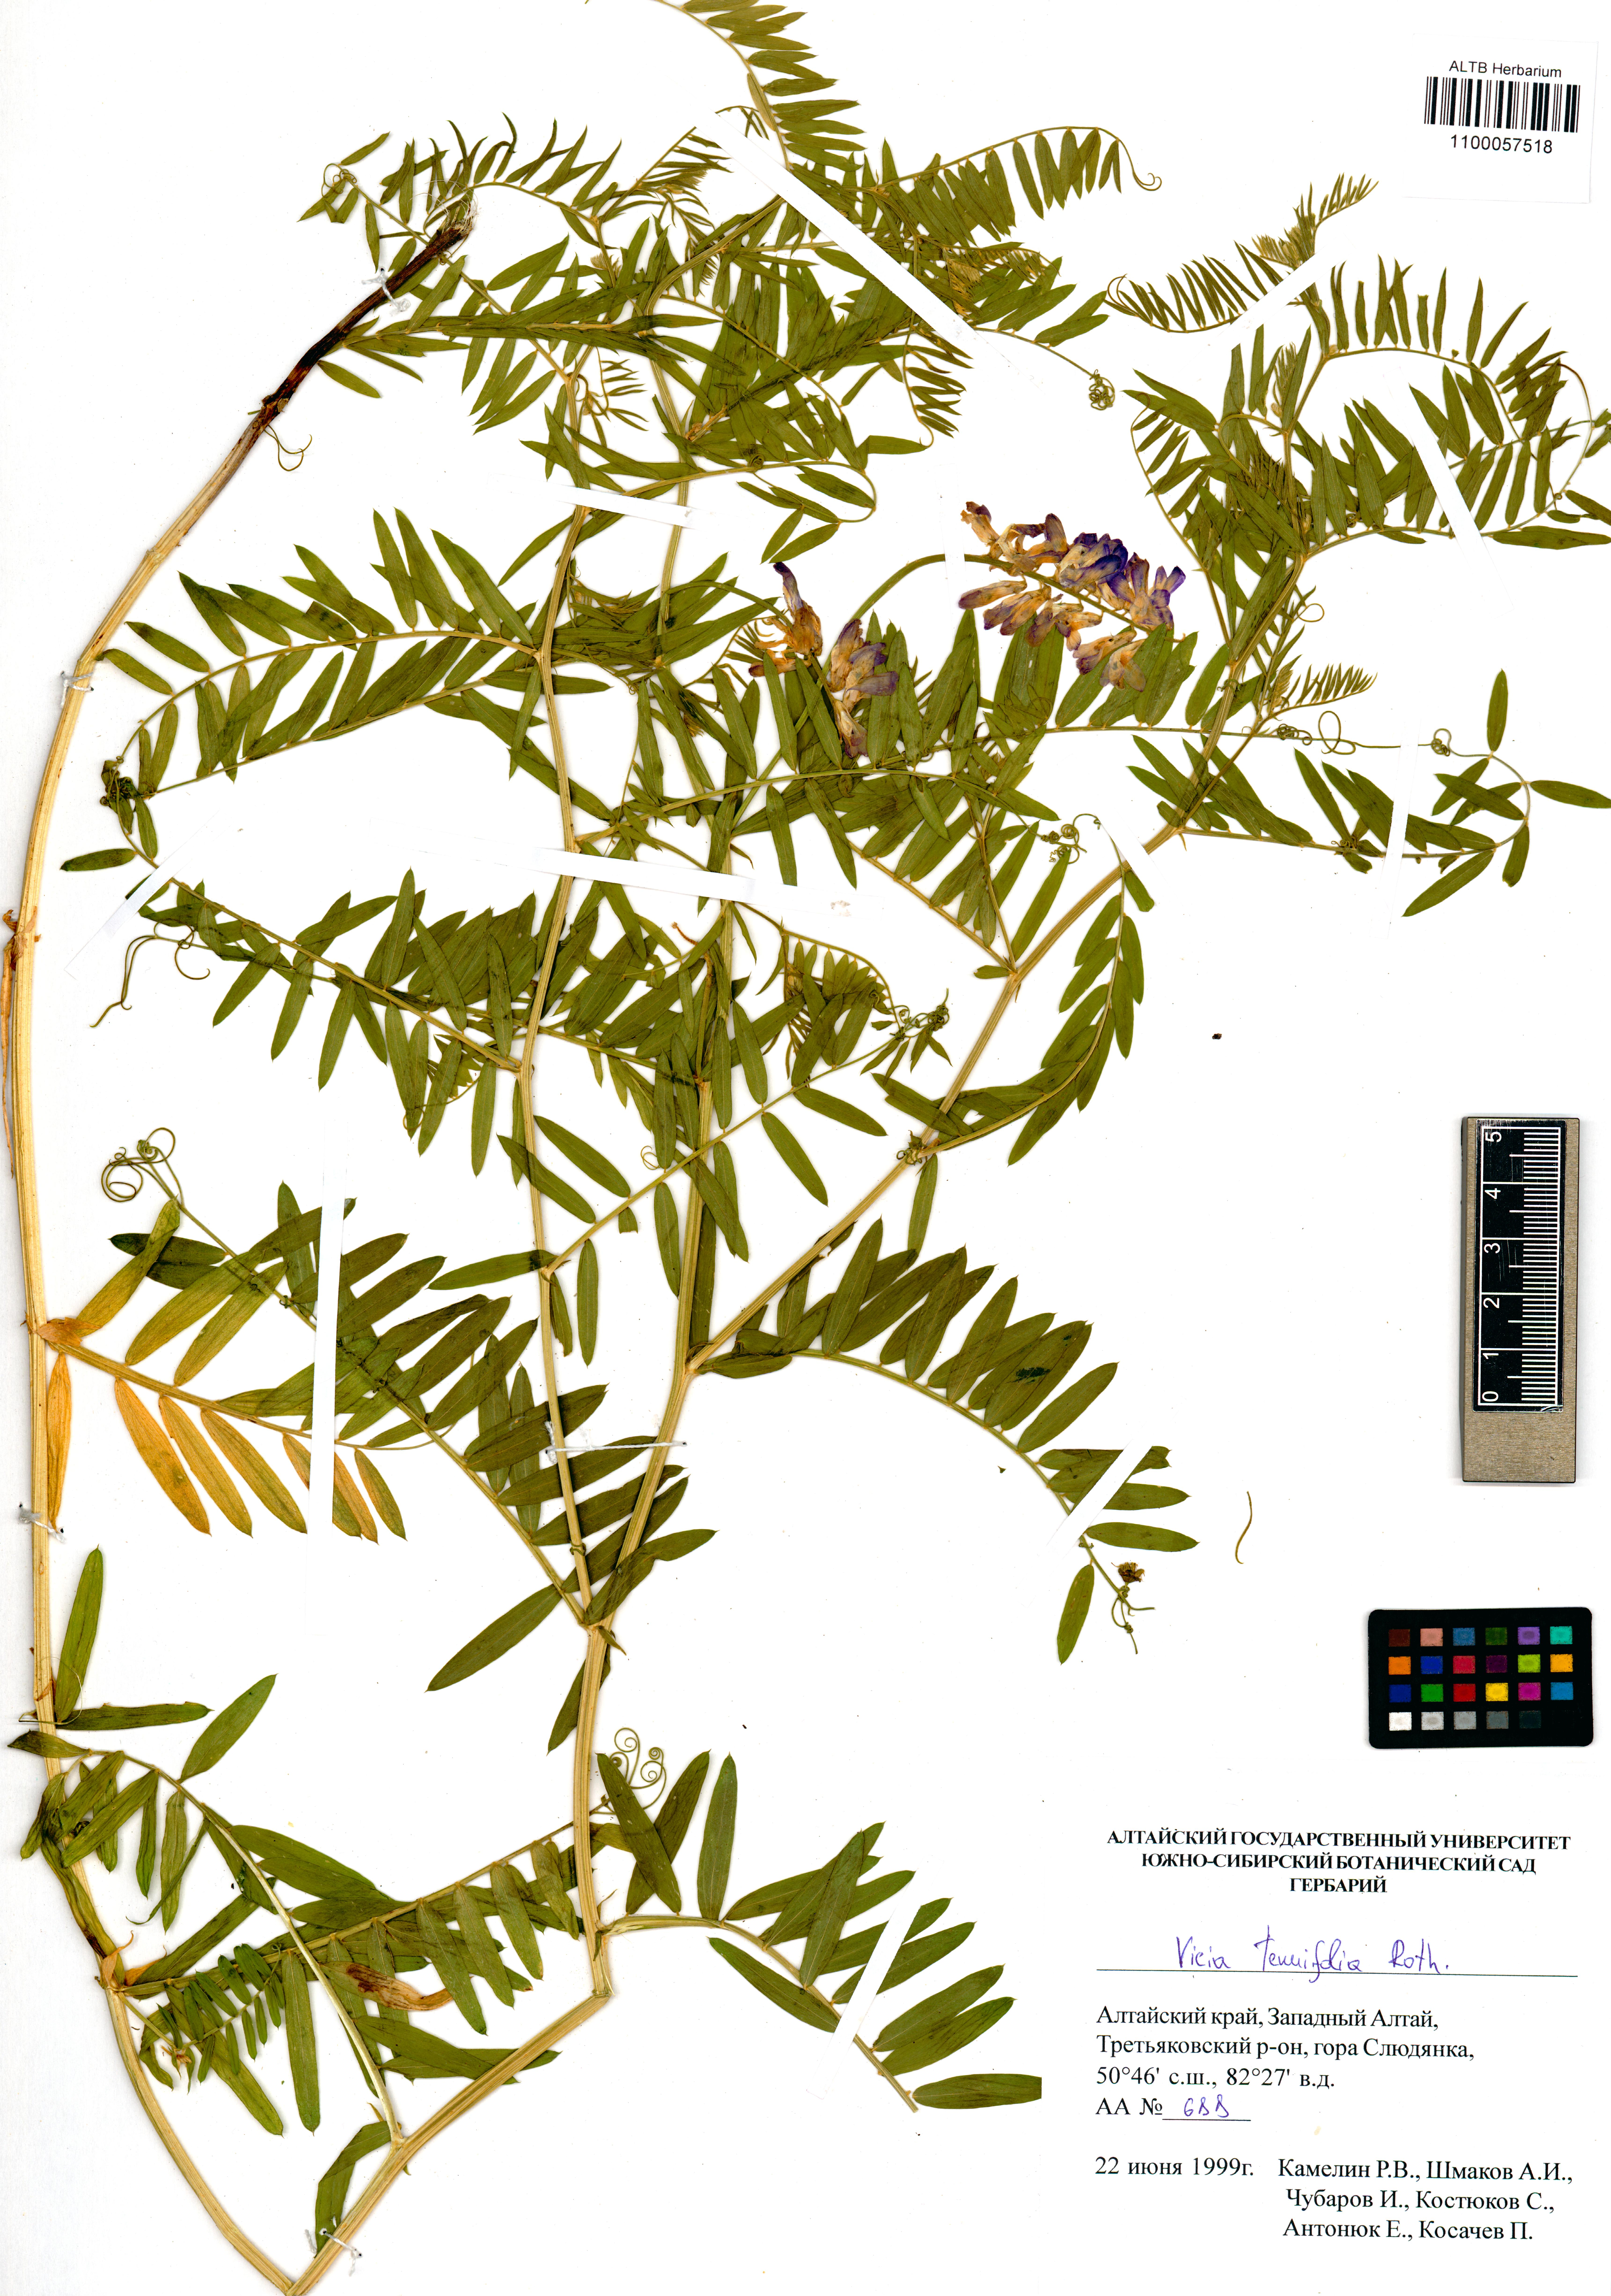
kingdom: Plantae
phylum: Tracheophyta
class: Magnoliopsida
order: Fabales
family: Fabaceae
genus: Vicia
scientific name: Vicia tenuifolia
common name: Fine-leaved vetch
